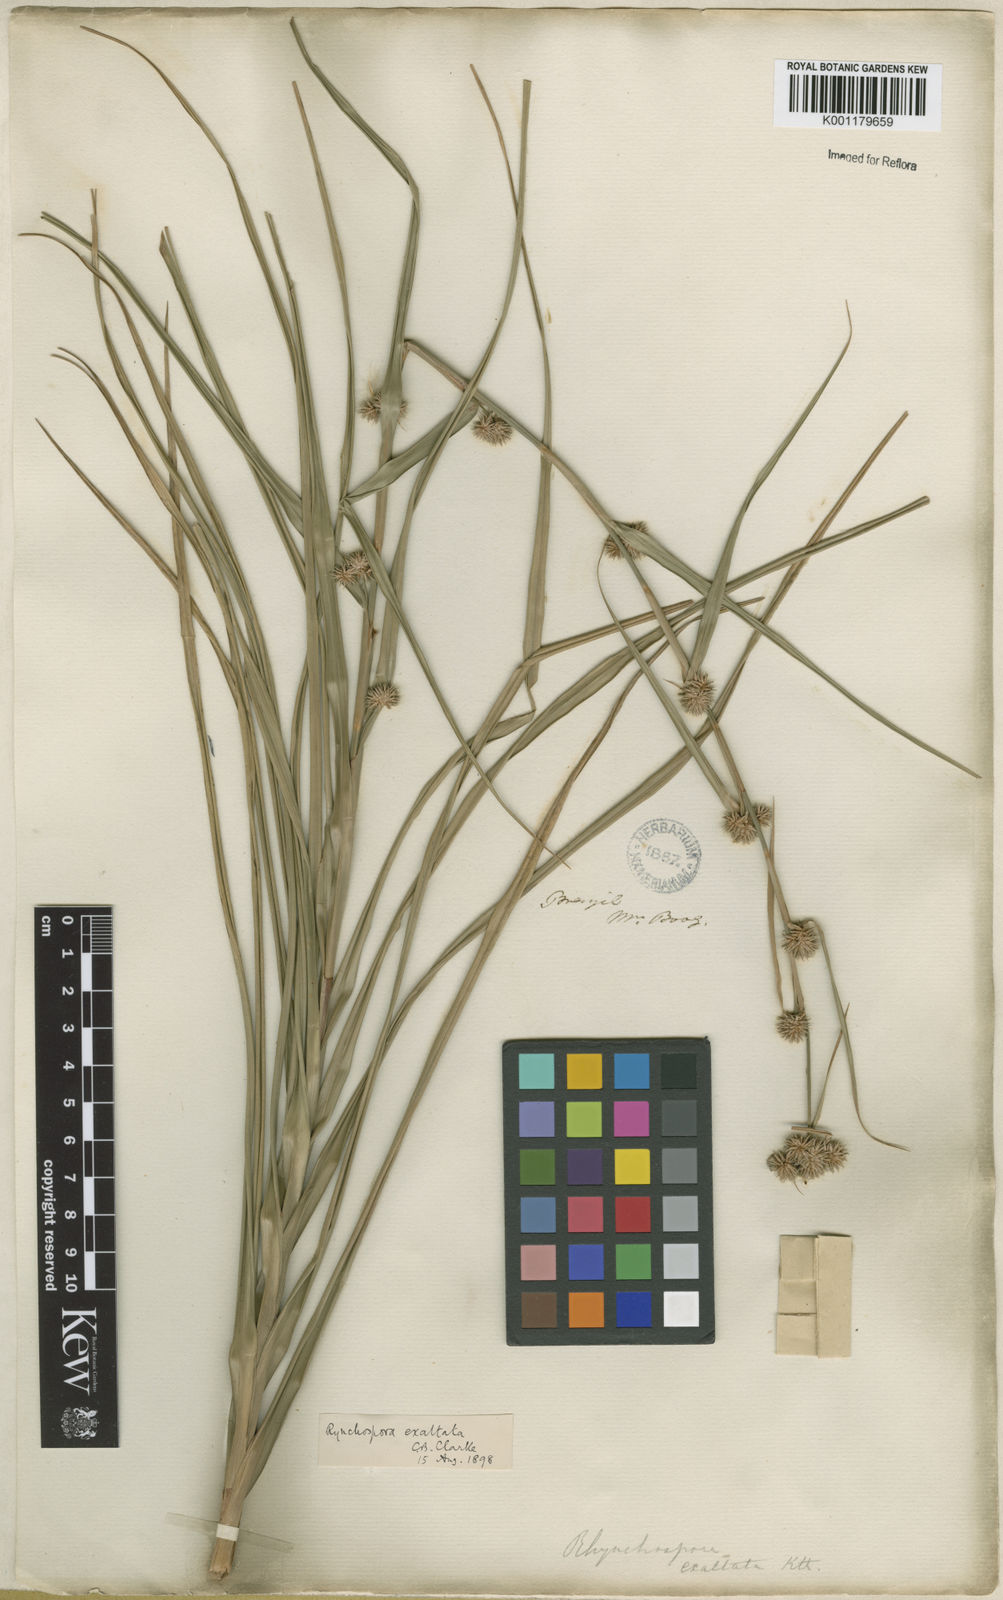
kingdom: Plantae
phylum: Tracheophyta
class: Liliopsida
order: Poales
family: Cyperaceae
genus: Rhynchospora
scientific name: Rhynchospora exaltata
